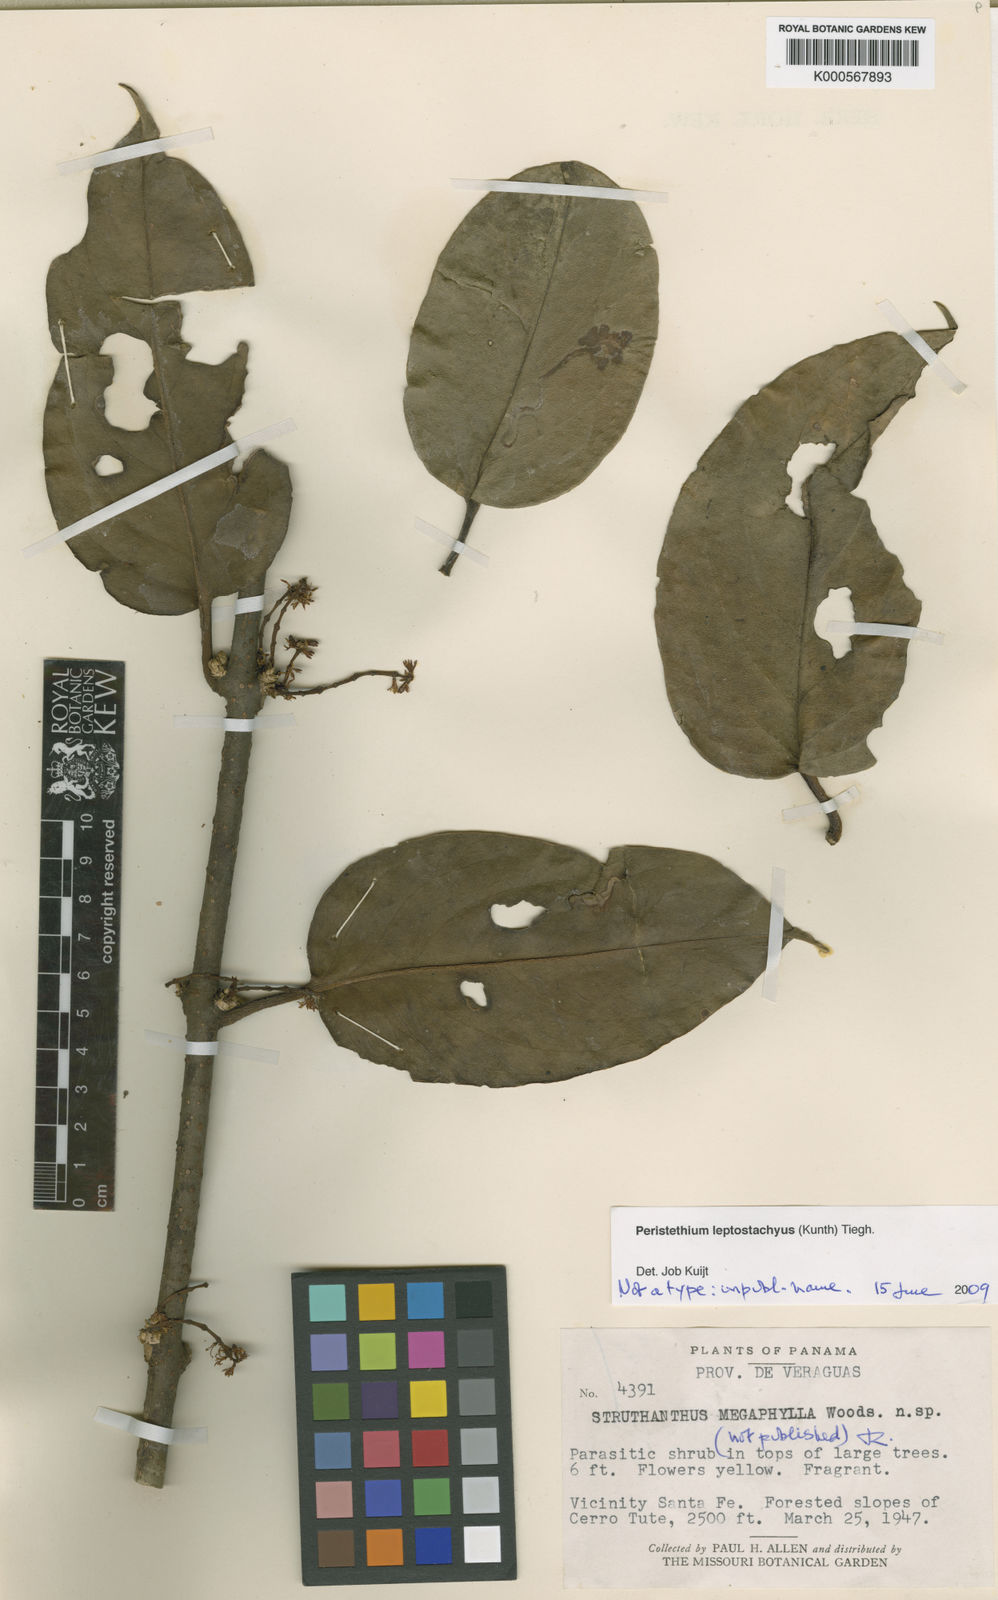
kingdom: Plantae
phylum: Tracheophyta
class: Magnoliopsida
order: Santalales
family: Loranthaceae
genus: Struthanthus
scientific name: Struthanthus
